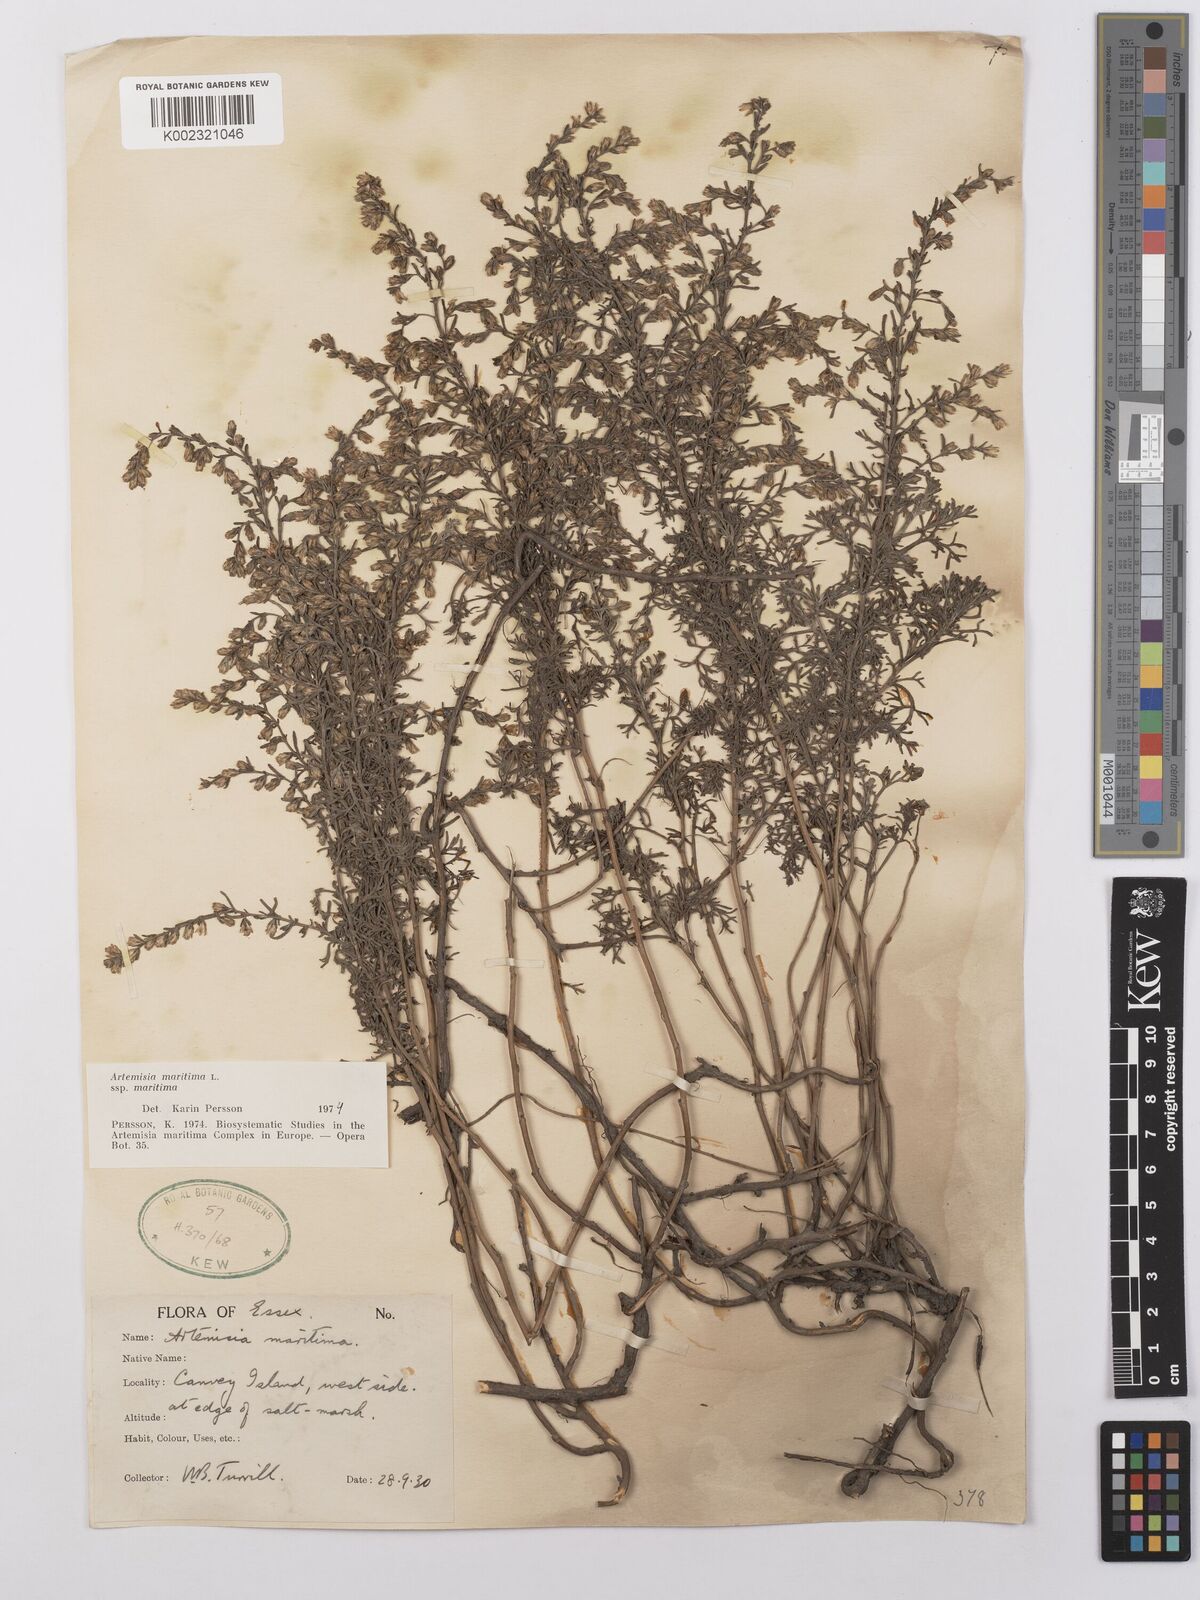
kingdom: Plantae
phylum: Tracheophyta
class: Magnoliopsida
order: Asterales
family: Asteraceae
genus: Artemisia
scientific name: Artemisia maritima
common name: Wormseed
